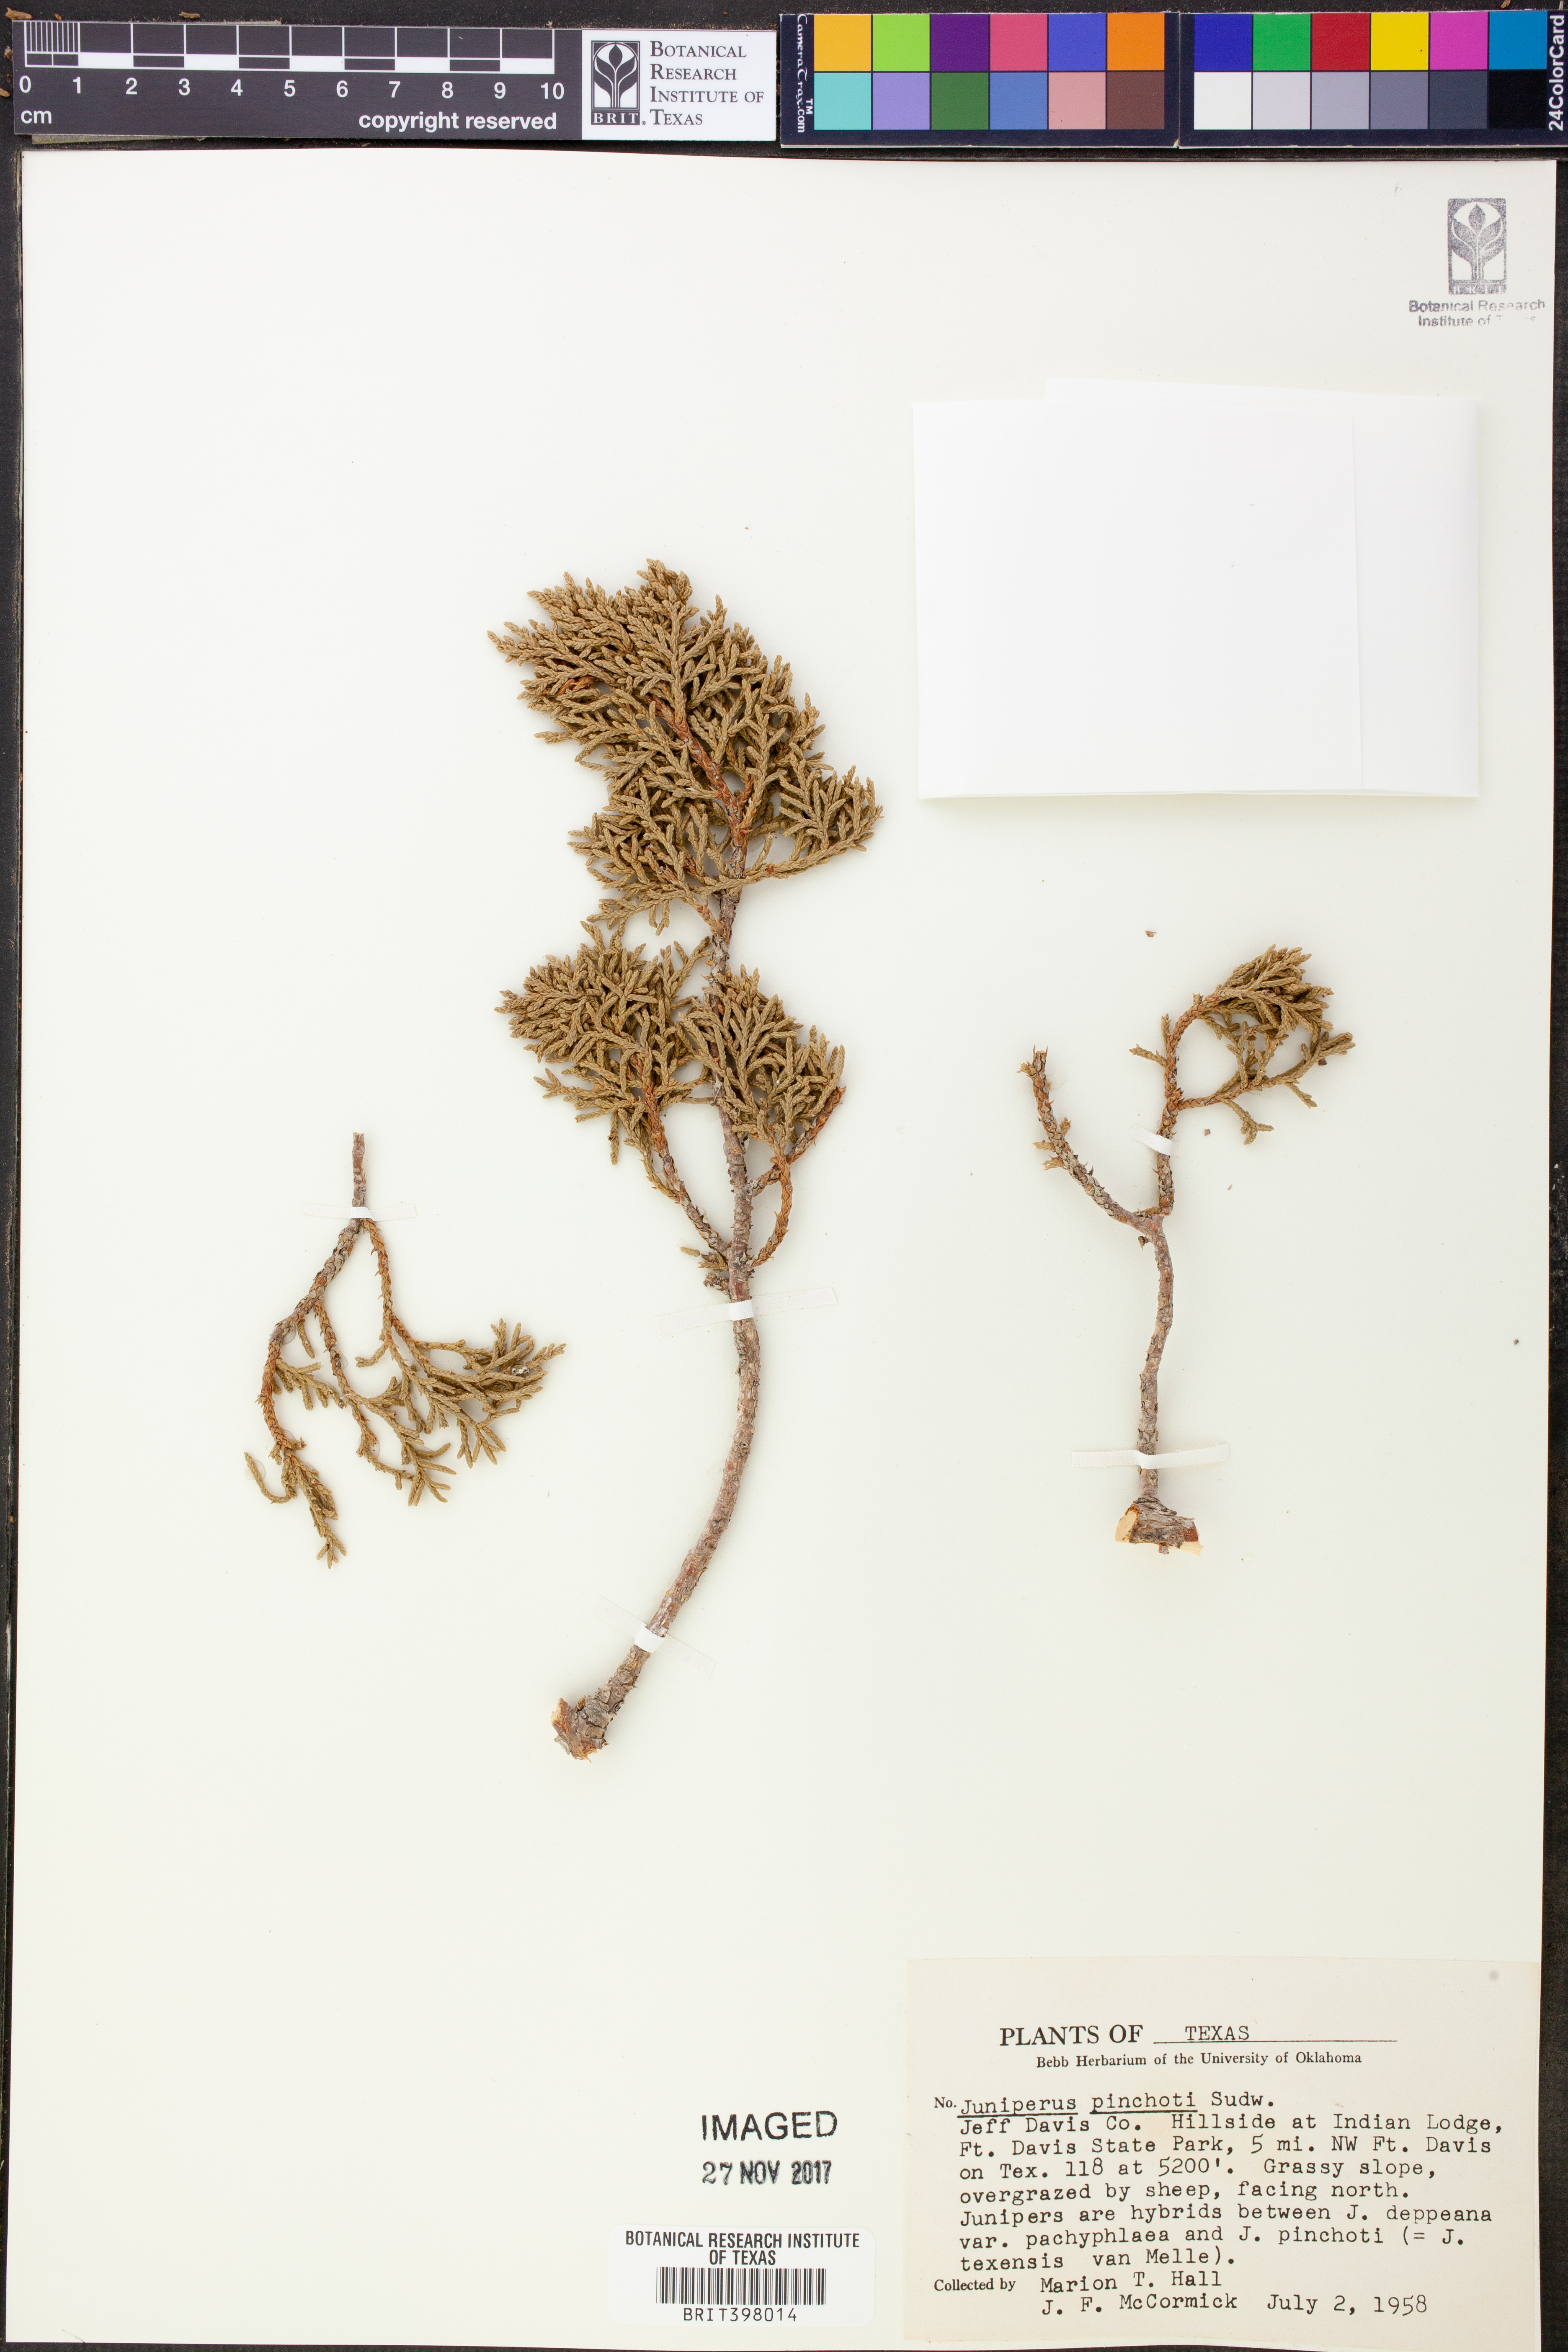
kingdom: Plantae
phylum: Tracheophyta
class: Pinopsida
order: Pinales
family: Cupressaceae
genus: Juniperus
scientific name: Juniperus pinchotii
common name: Pinchot juniper
